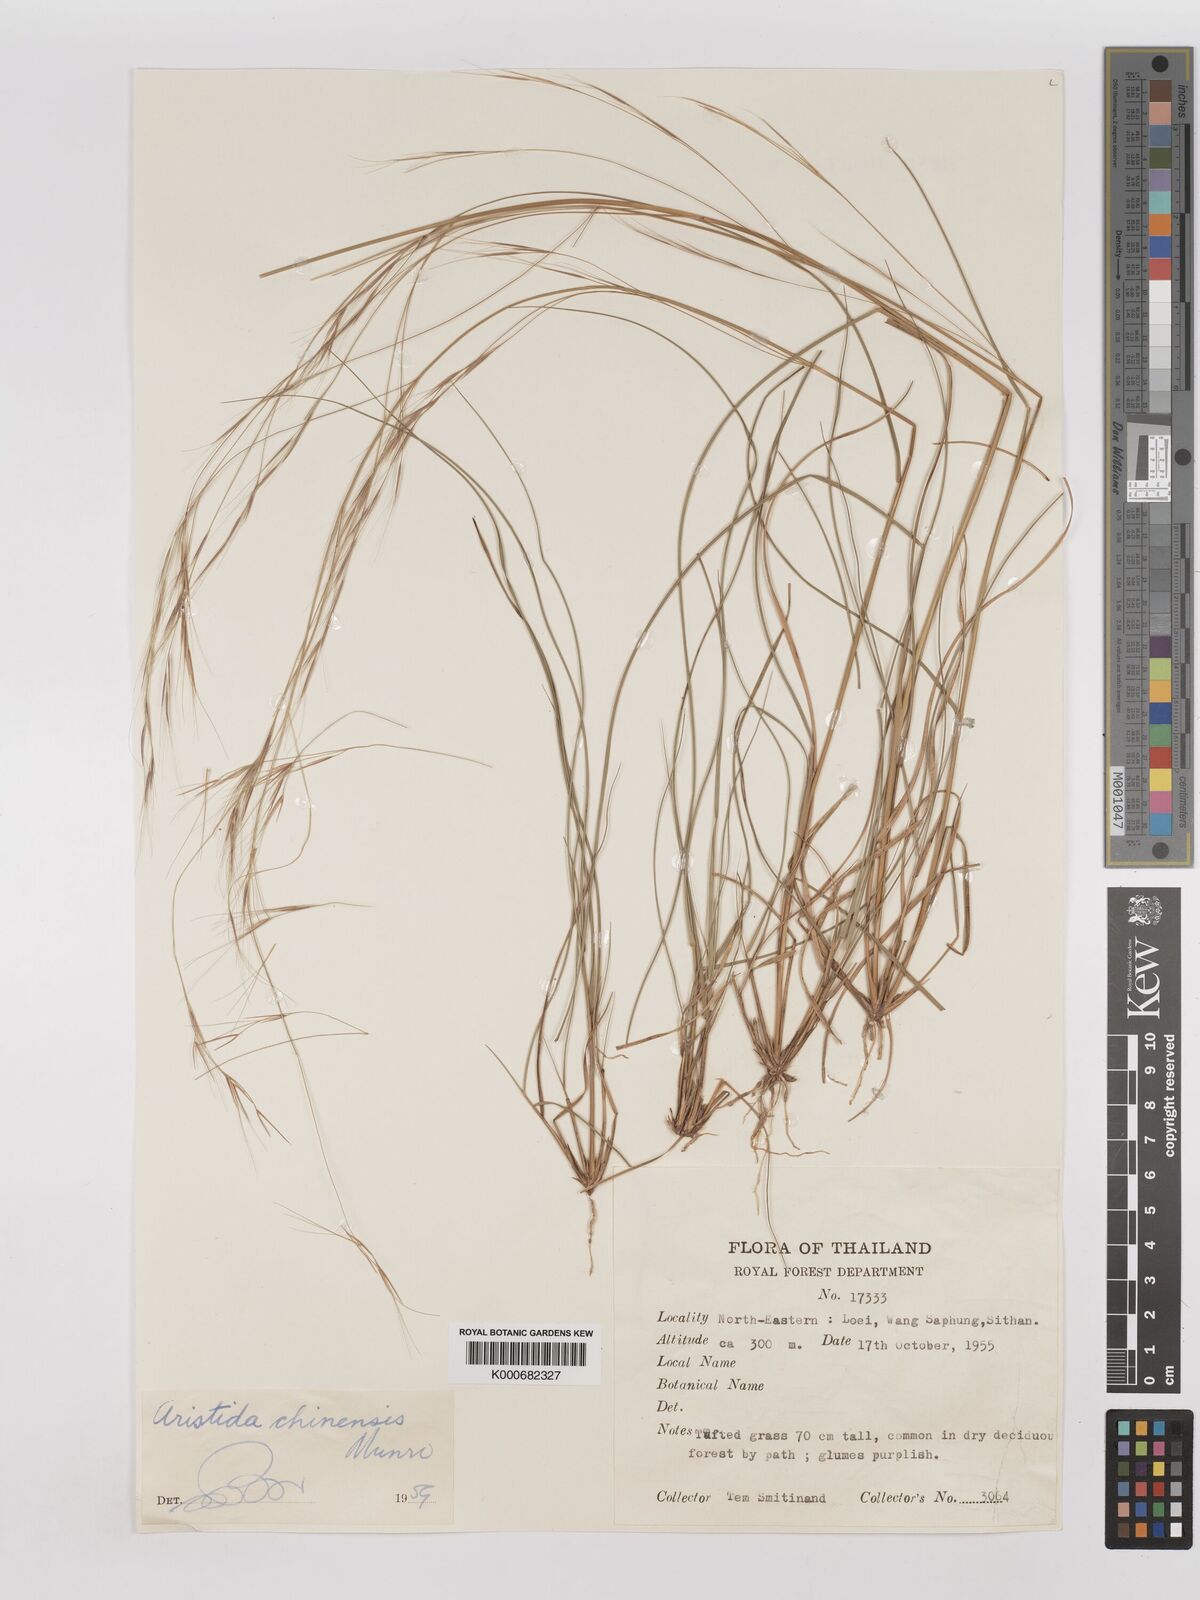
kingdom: Plantae
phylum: Tracheophyta
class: Liliopsida
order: Poales
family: Poaceae
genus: Aristida
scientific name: Aristida chinensis
